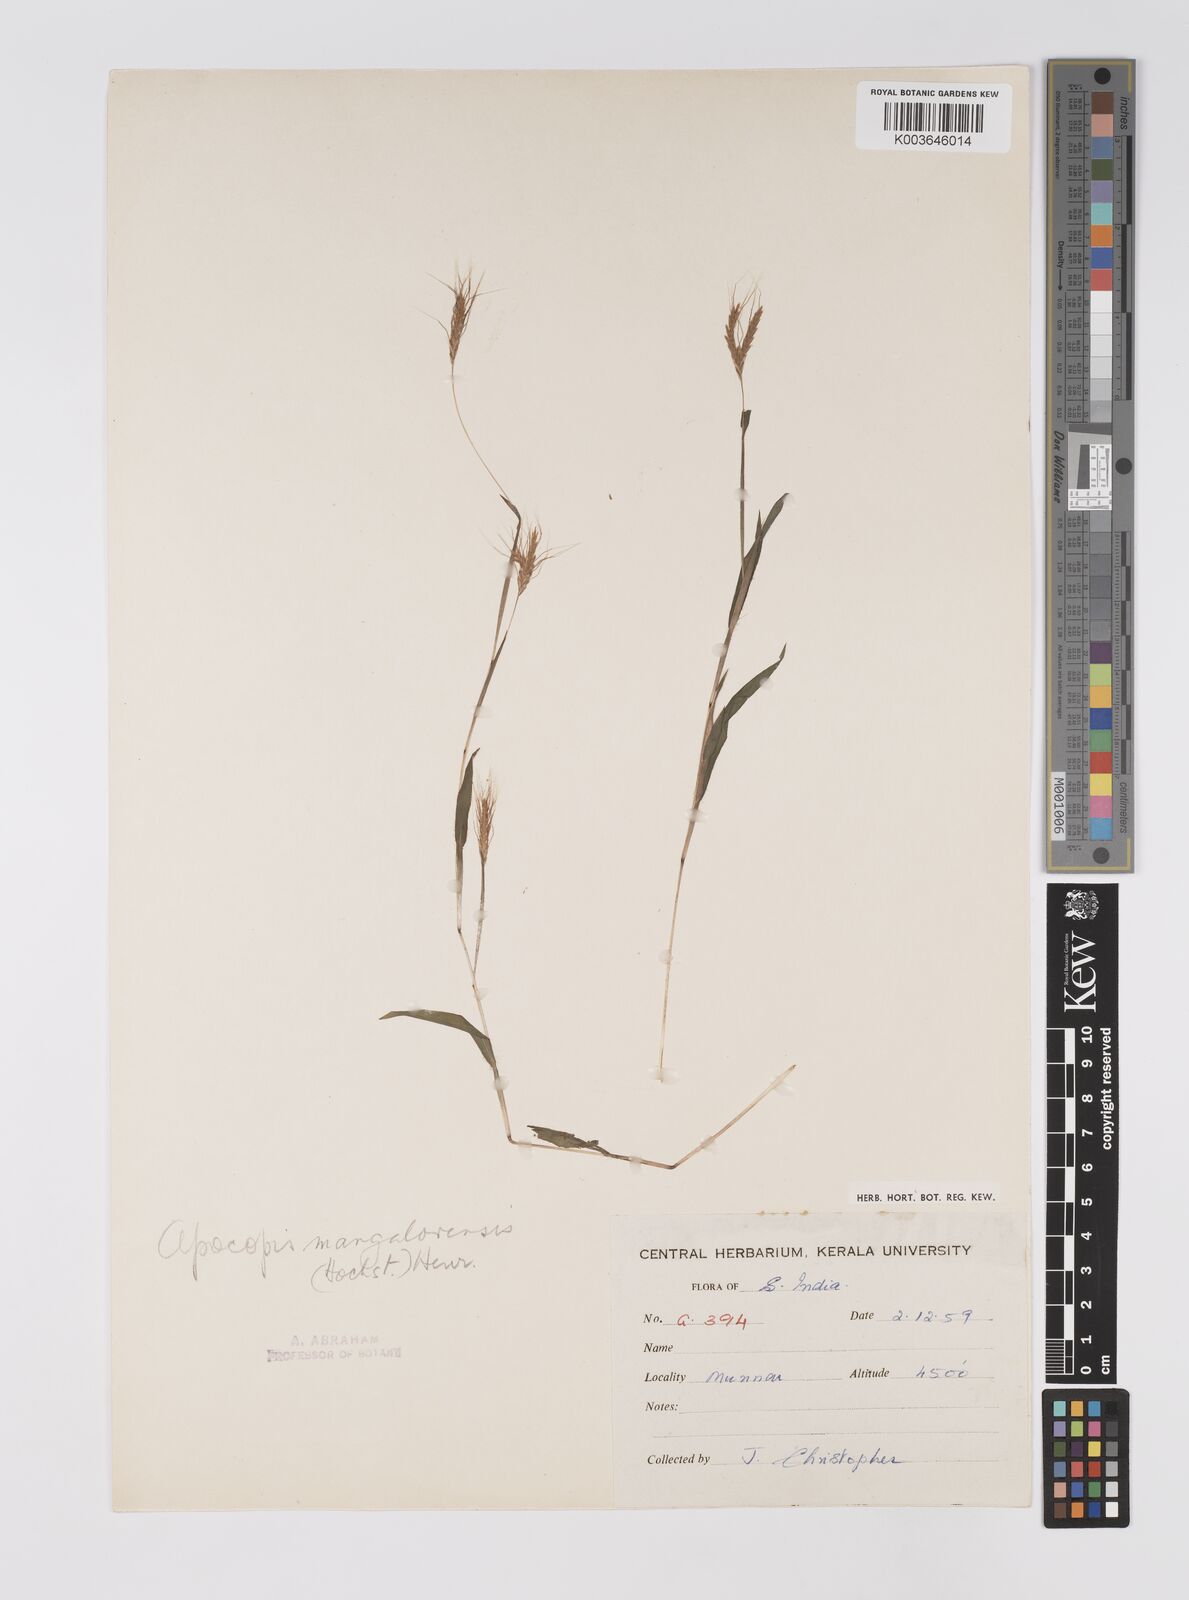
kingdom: Plantae
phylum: Tracheophyta
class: Liliopsida
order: Poales
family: Poaceae
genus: Apocopis
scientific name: Apocopis mangalorensis
